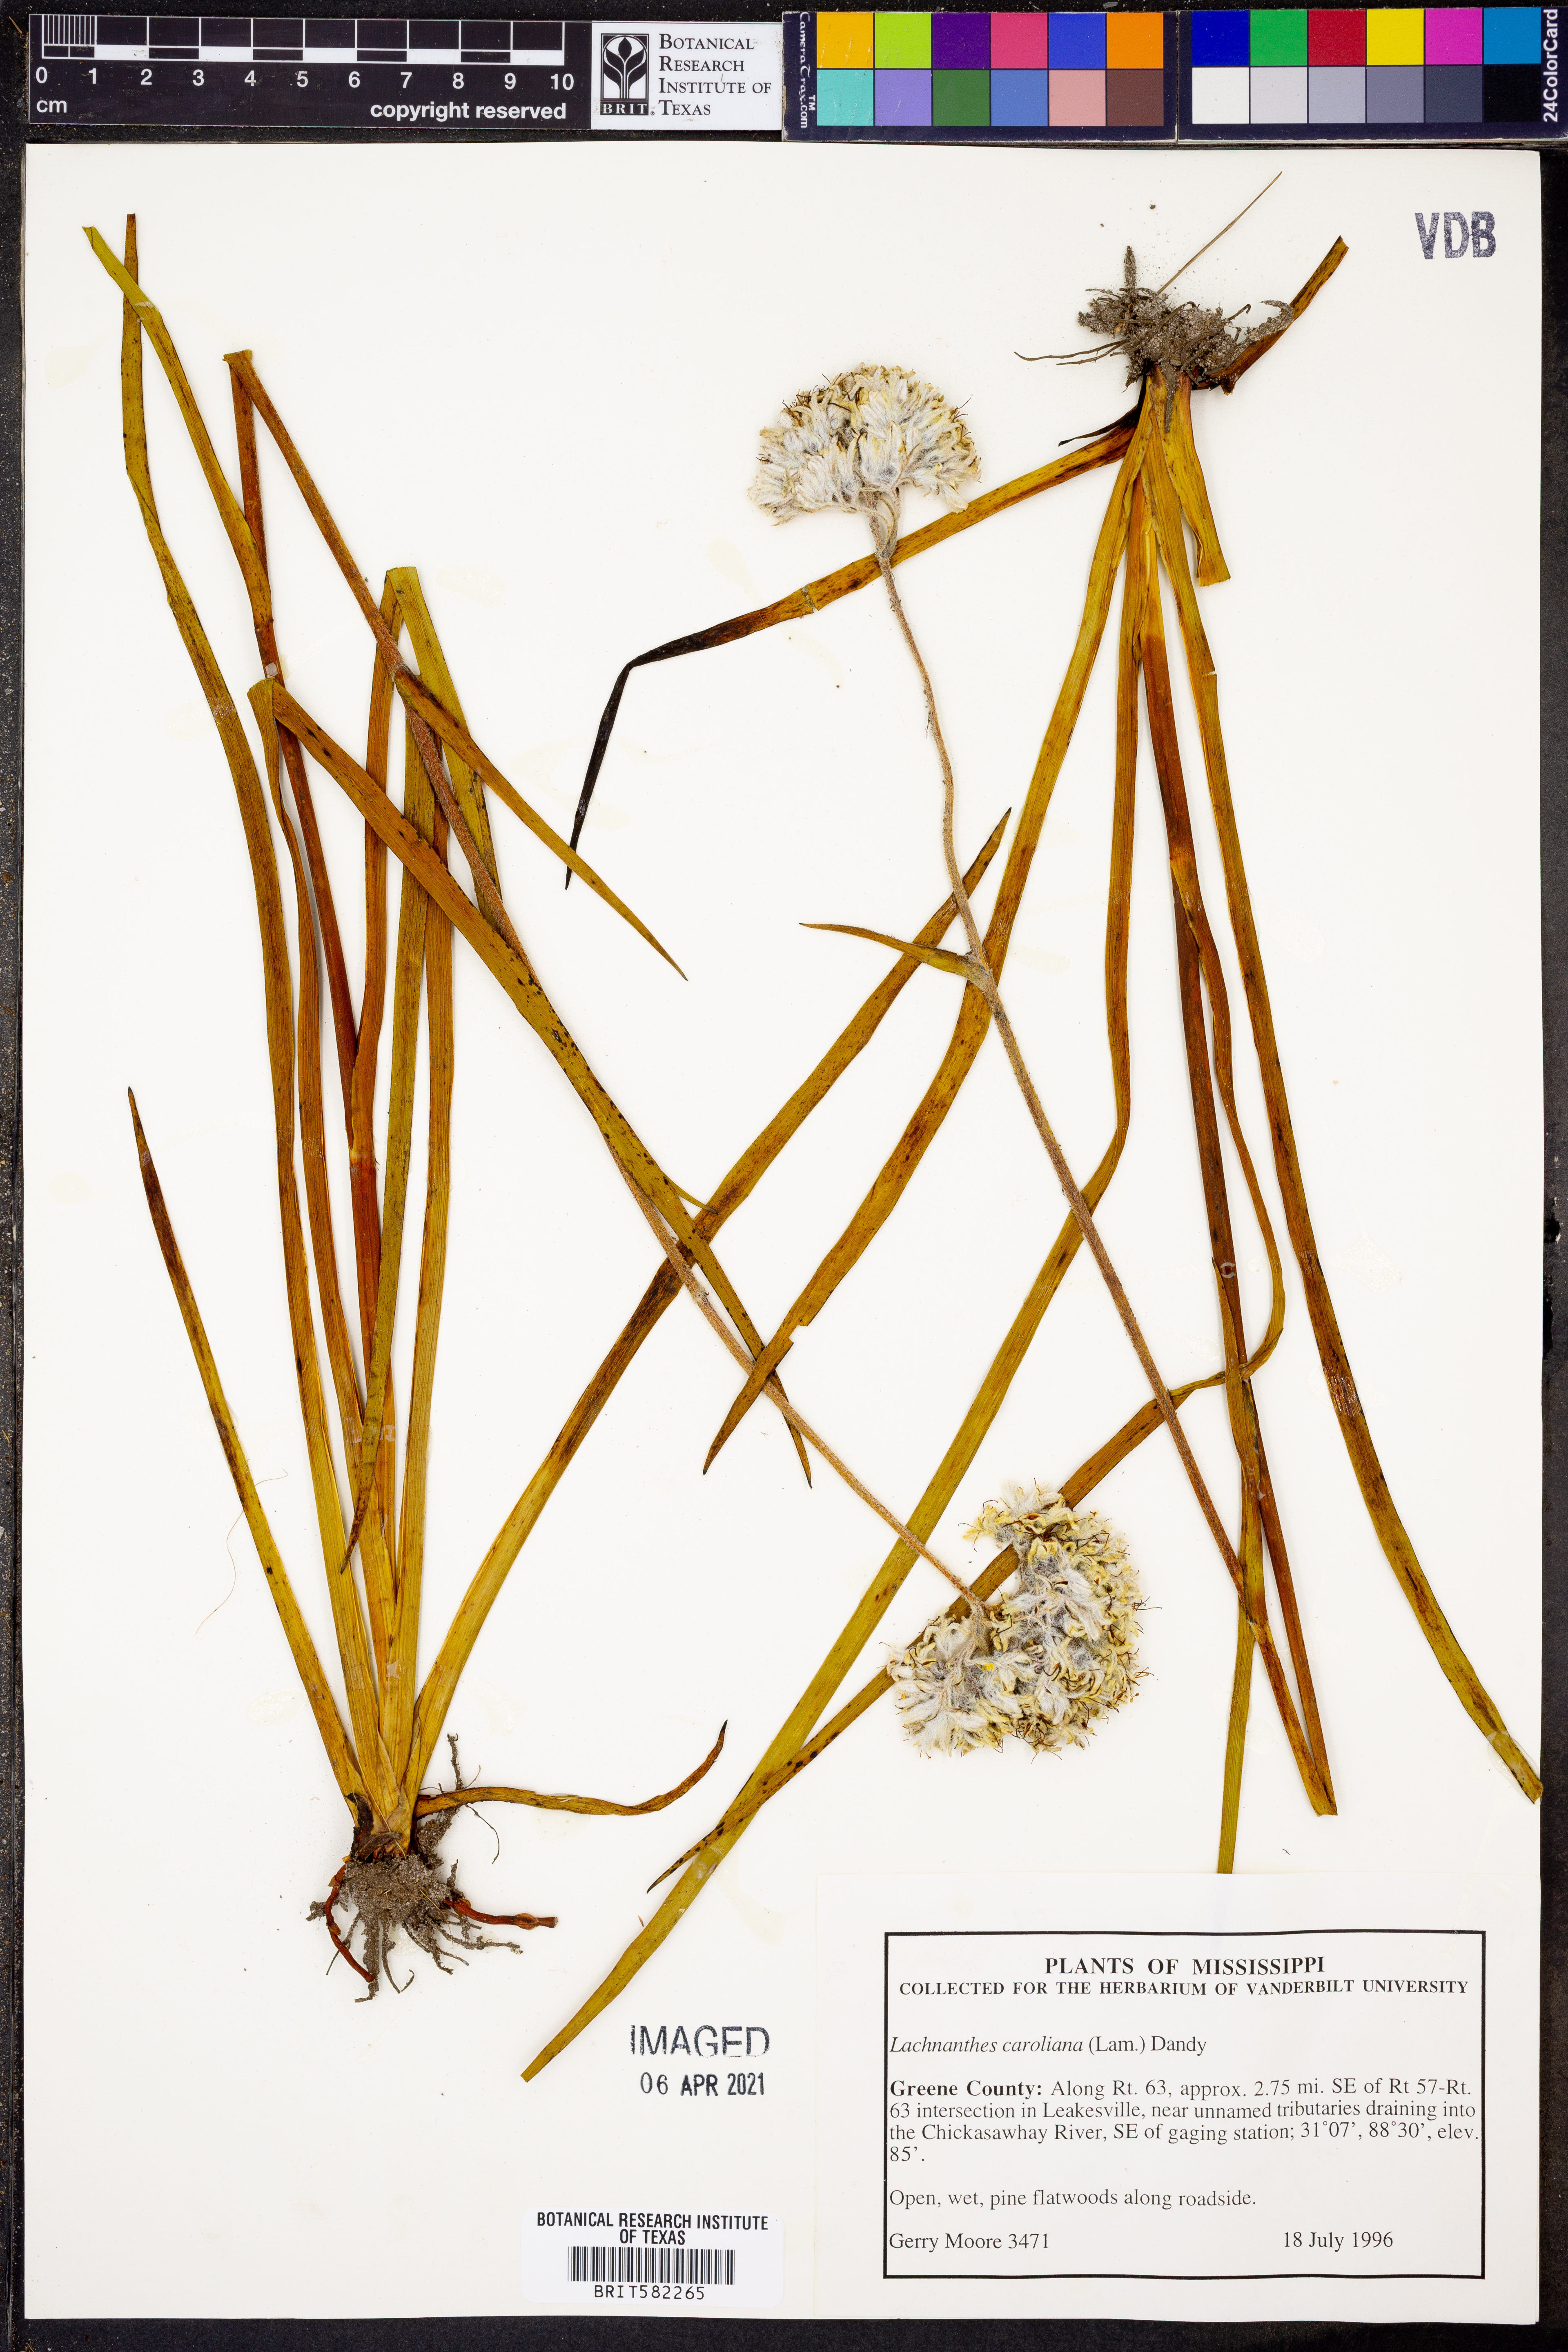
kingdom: Plantae
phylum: Tracheophyta
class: Liliopsida
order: Commelinales
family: Haemodoraceae
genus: Lachnanthes
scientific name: Lachnanthes caroliana
